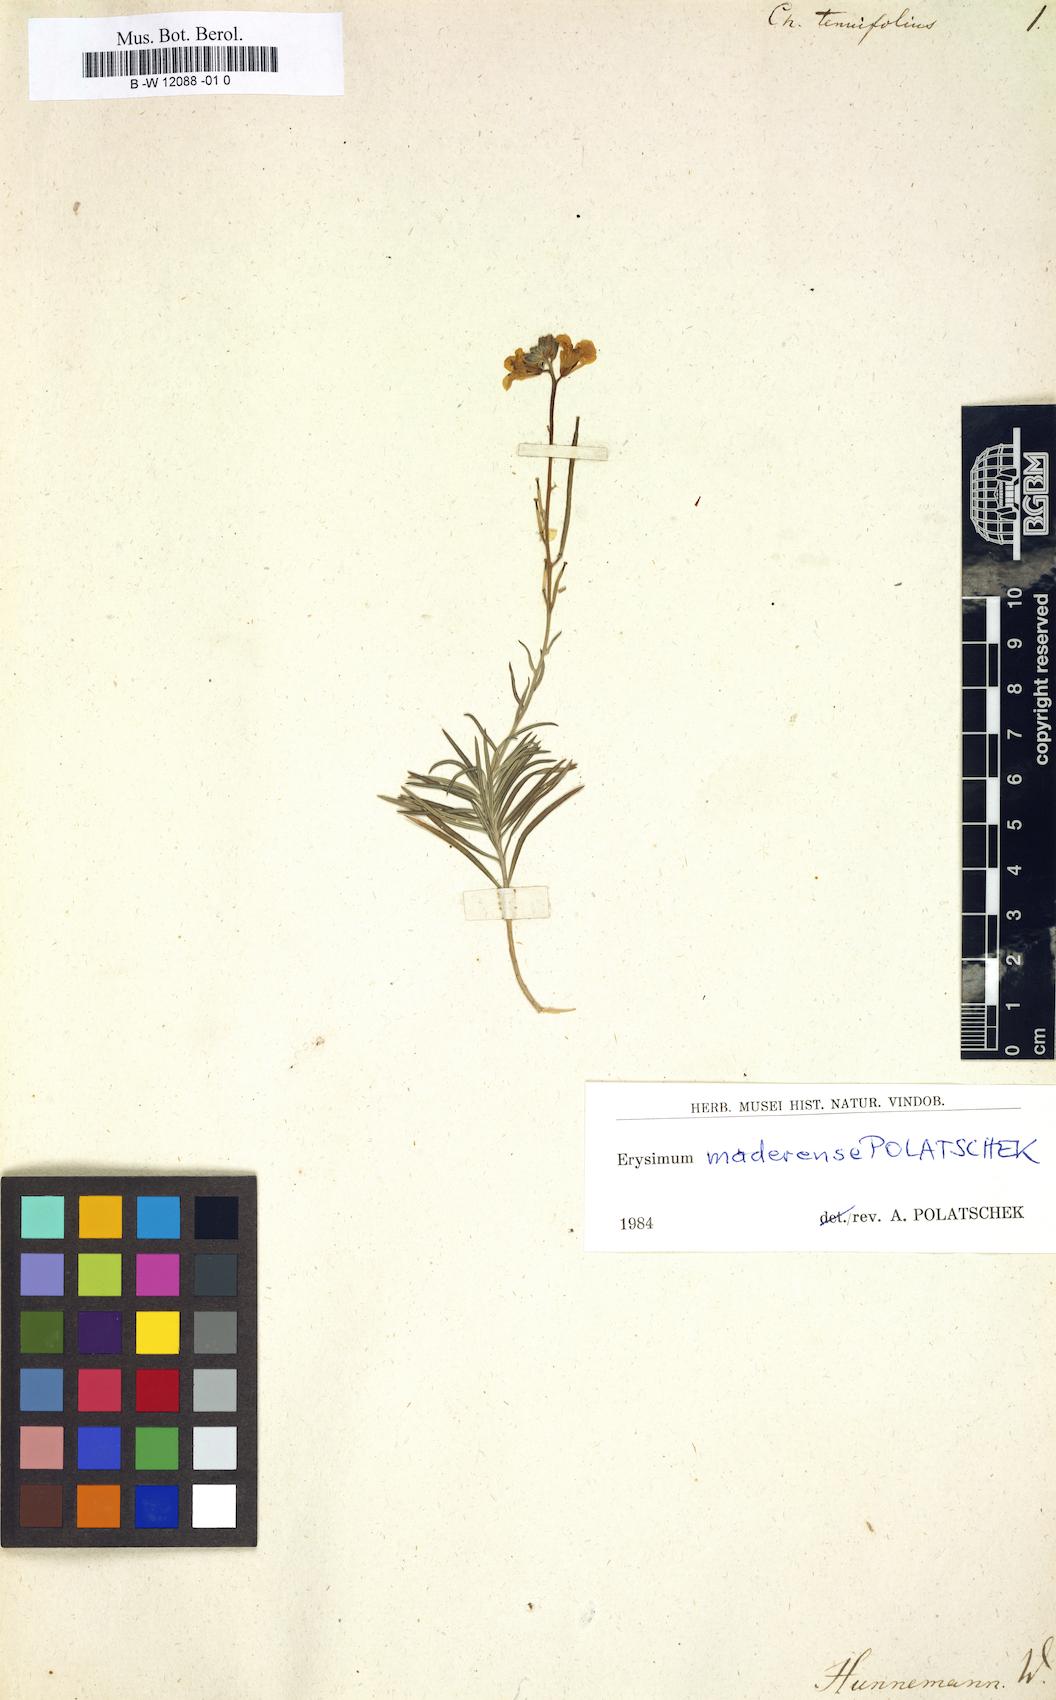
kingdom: Plantae
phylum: Tracheophyta
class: Magnoliopsida
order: Brassicales
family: Brassicaceae
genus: Erysimum
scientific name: Erysimum maderense
